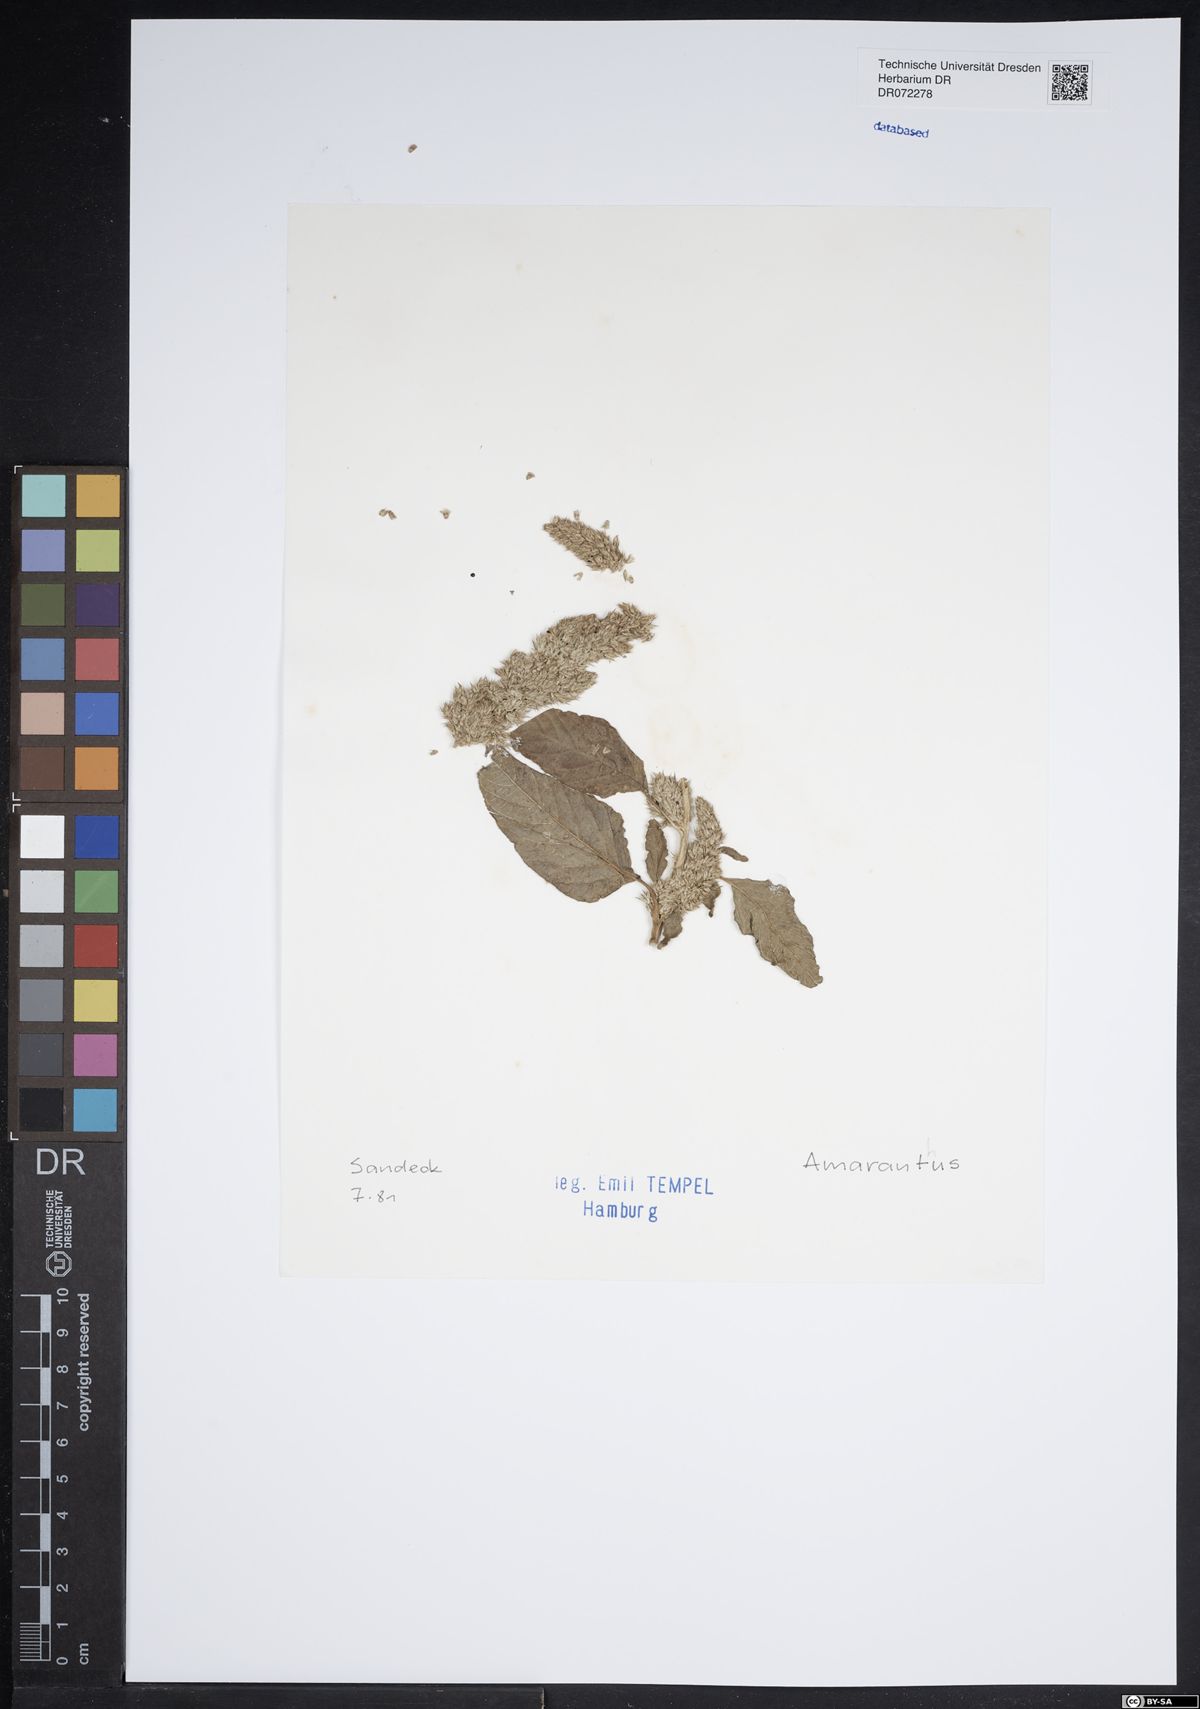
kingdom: Plantae
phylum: Tracheophyta
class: Magnoliopsida
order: Caryophyllales
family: Amaranthaceae
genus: Amaranthus
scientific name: Amaranthus
